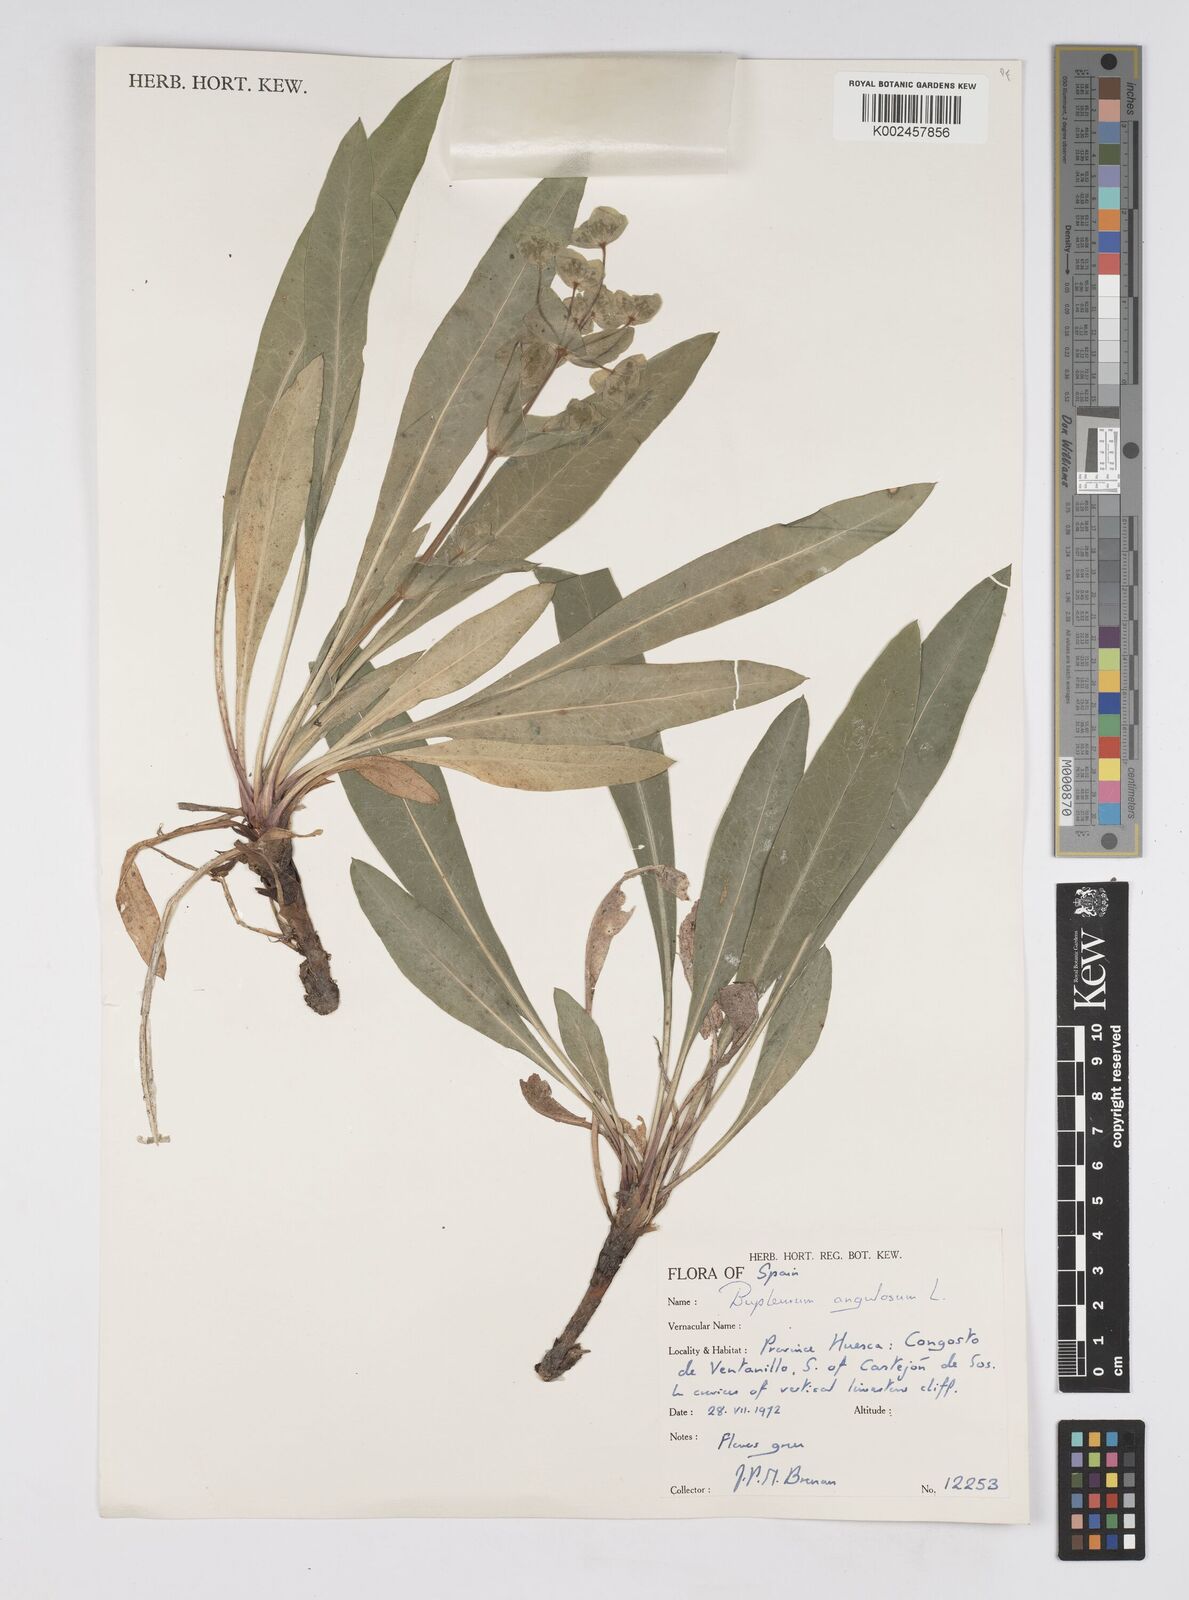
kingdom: Plantae
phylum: Tracheophyta
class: Magnoliopsida
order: Apiales
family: Apiaceae
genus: Bupleurum
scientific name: Bupleurum angulosum
